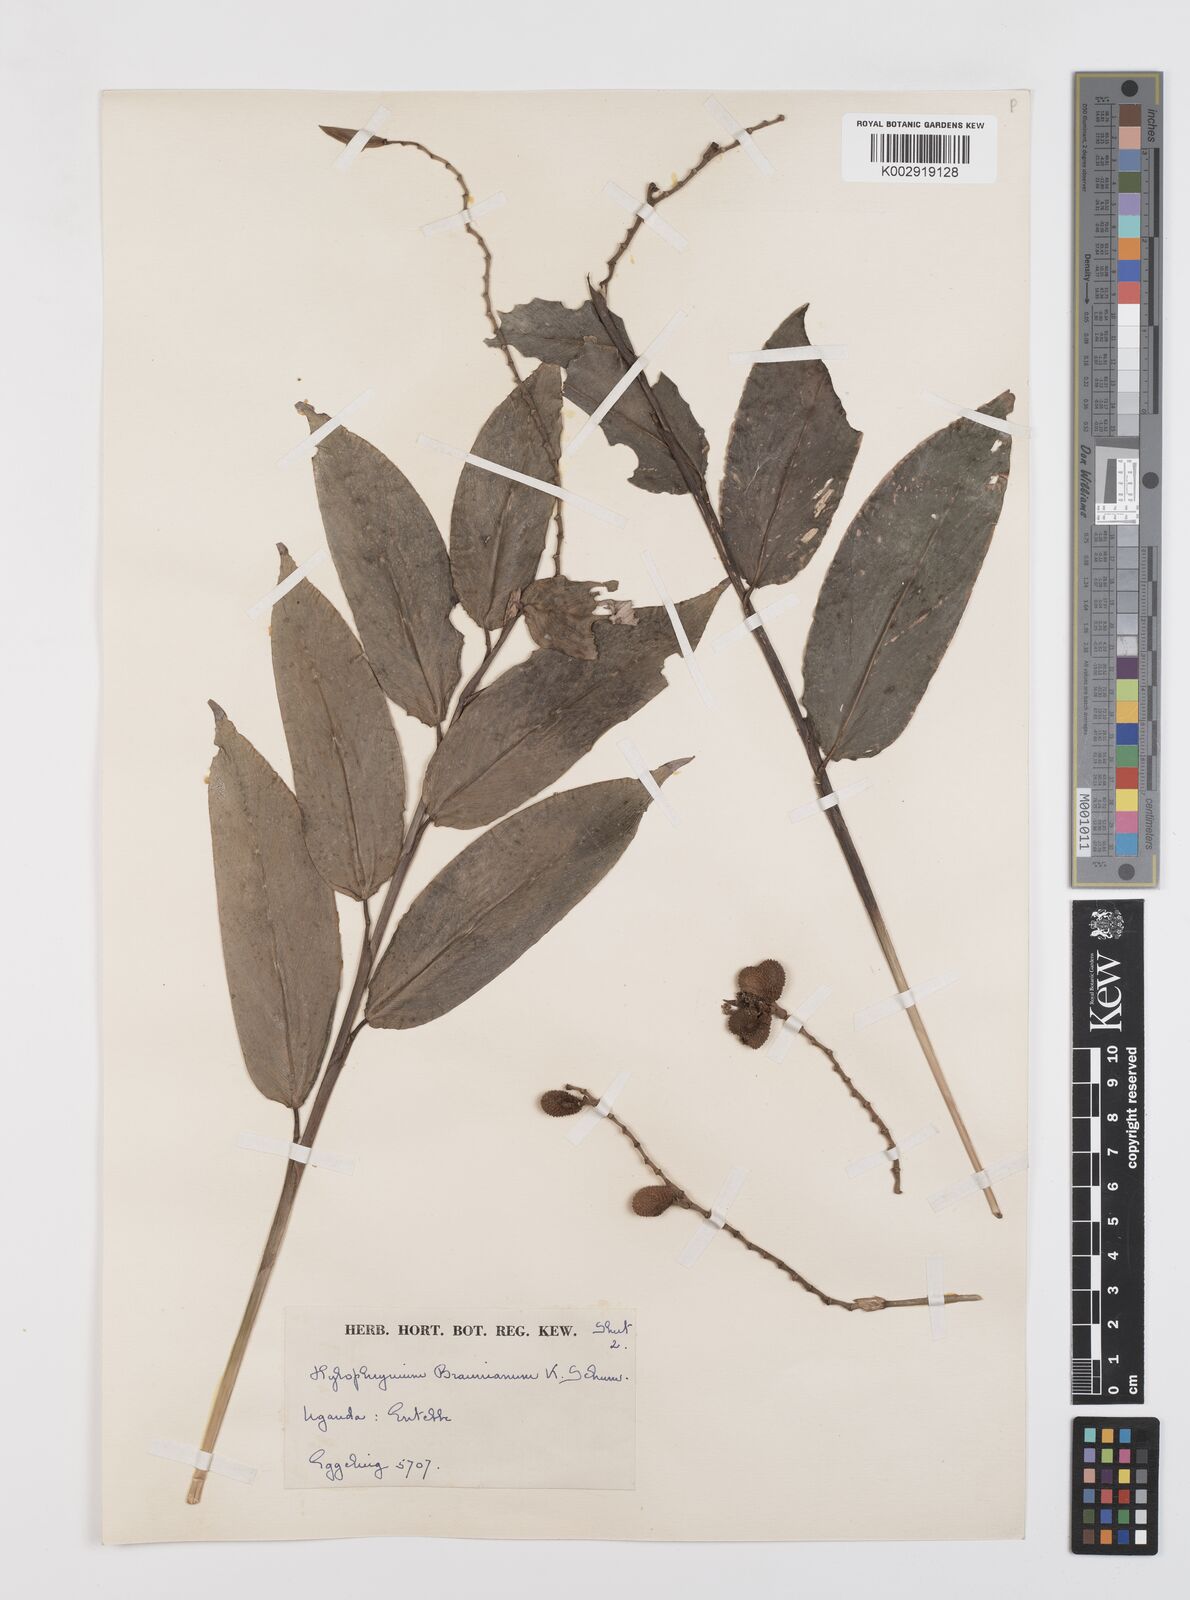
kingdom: Plantae
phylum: Tracheophyta
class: Liliopsida
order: Zingiberales
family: Marantaceae
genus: Trachyphrynium
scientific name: Trachyphrynium braunianum
